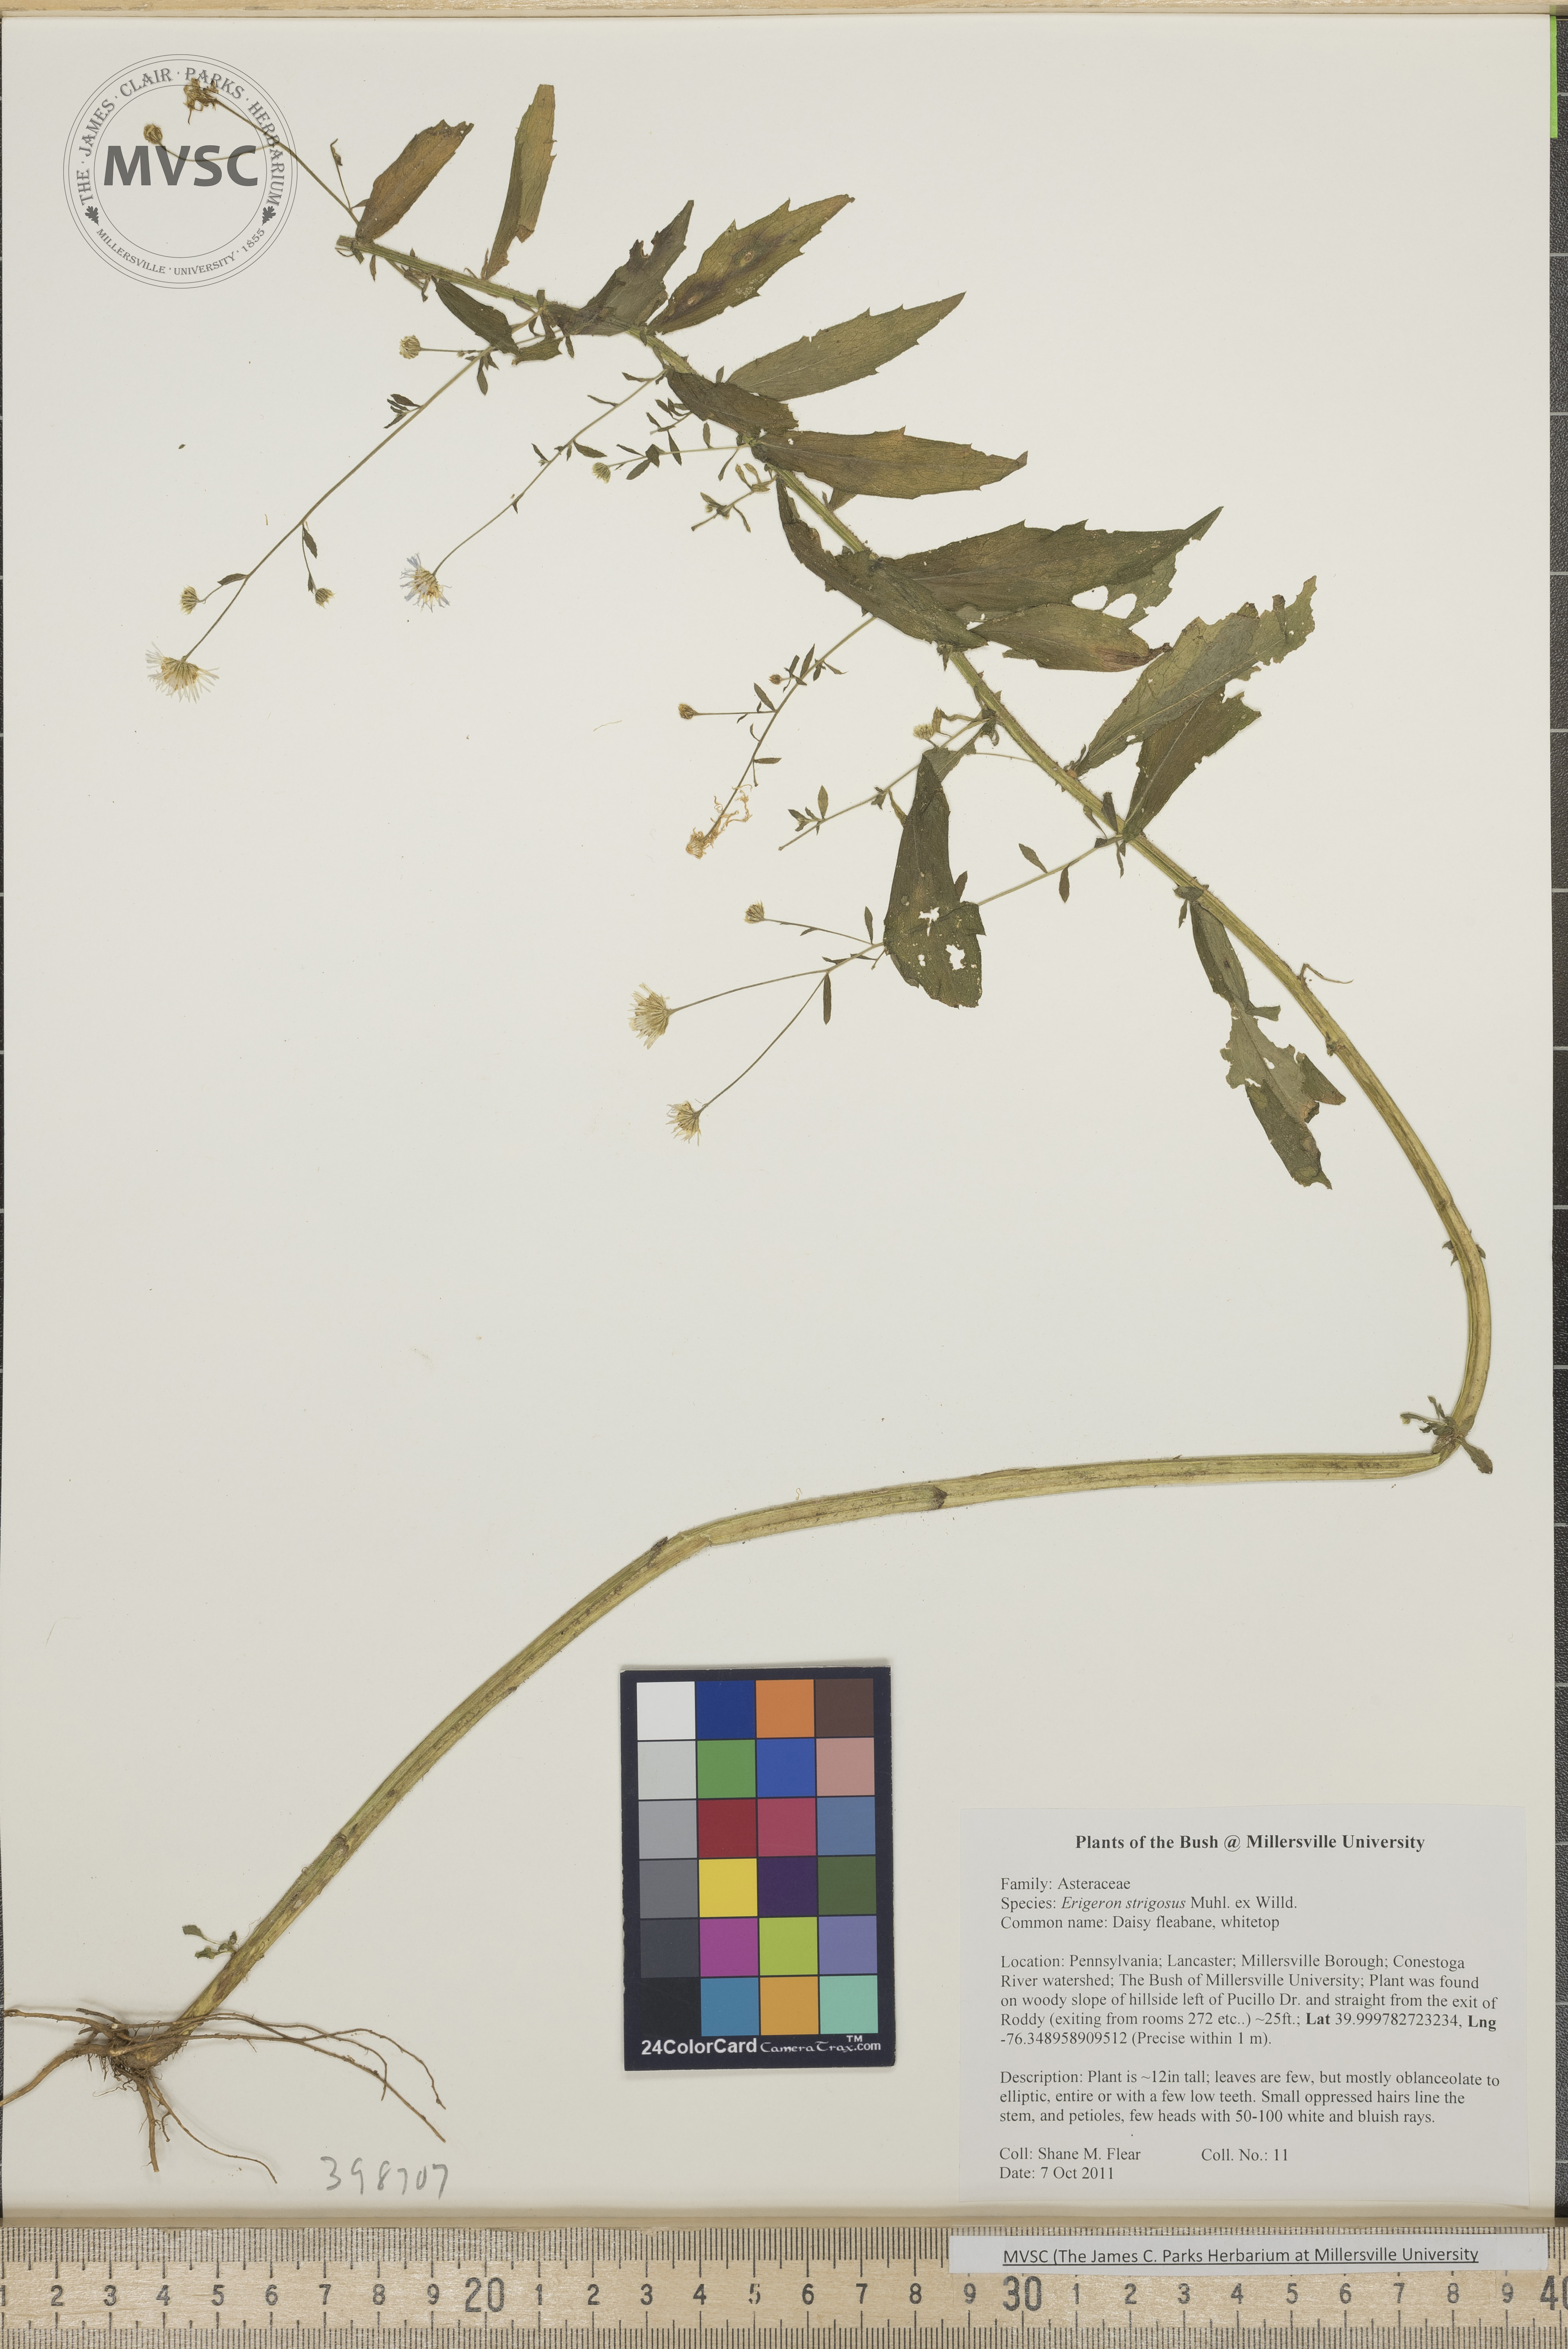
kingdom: Plantae
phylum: Tracheophyta
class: Magnoliopsida
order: Asterales
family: Asteraceae
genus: Erigeron
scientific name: Erigeron strigosus
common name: Robin's-plantain
